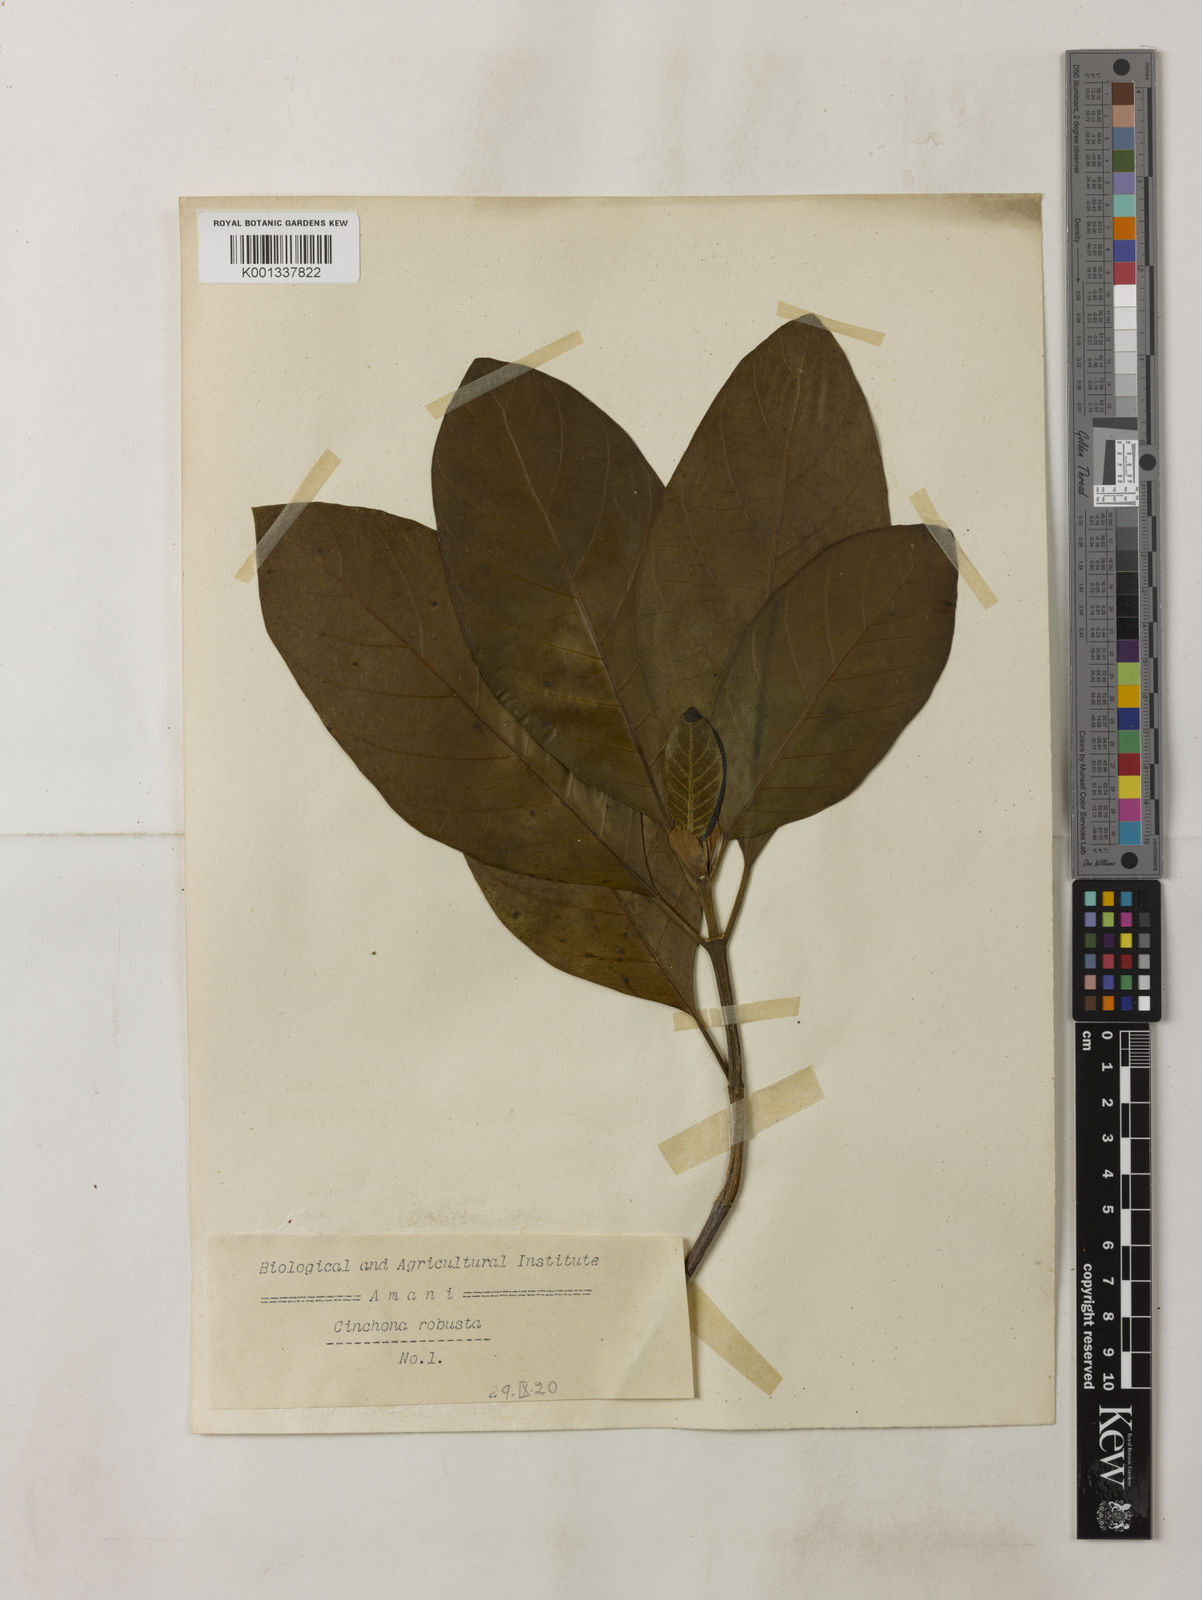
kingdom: Plantae
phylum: Tracheophyta
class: Magnoliopsida
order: Gentianales
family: Rubiaceae
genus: Cinchona
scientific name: Cinchona officinalis
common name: Lojabark
